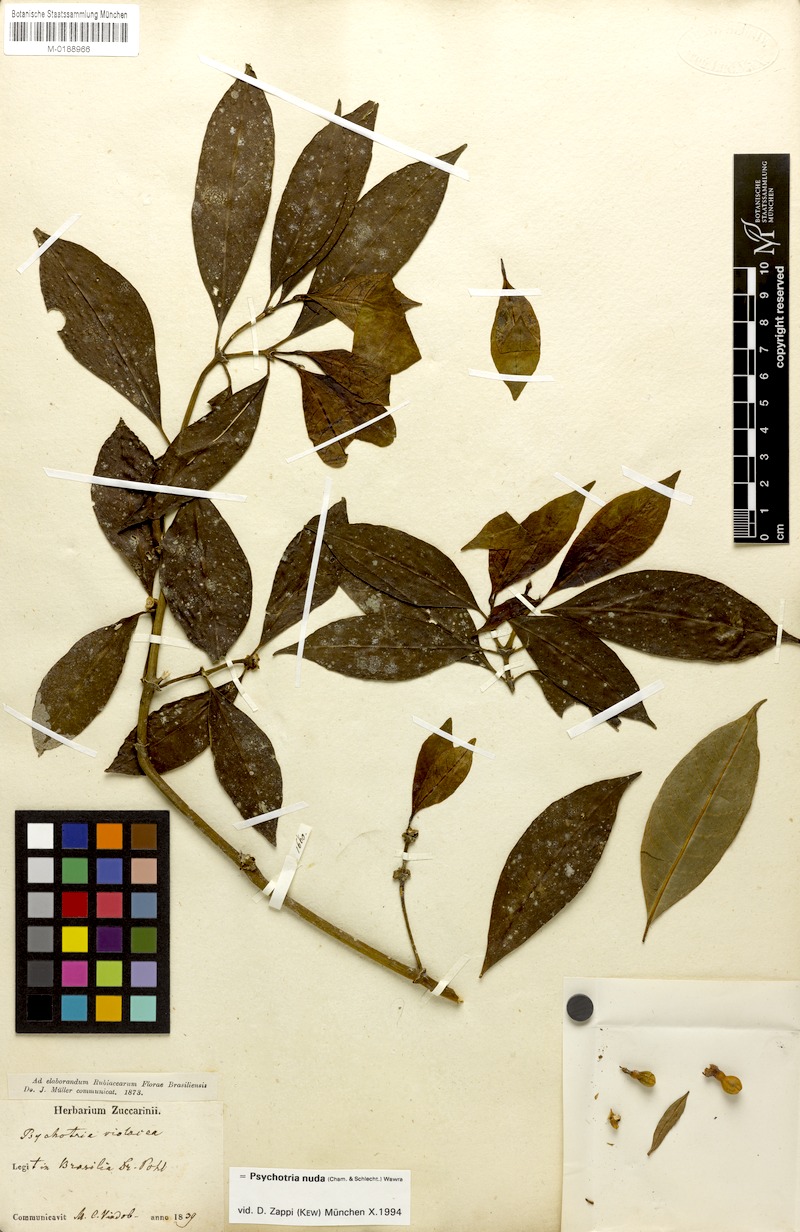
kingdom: Plantae
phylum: Tracheophyta
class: Magnoliopsida
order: Gentianales
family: Rubiaceae
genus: Psychotria
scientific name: Psychotria nuda
